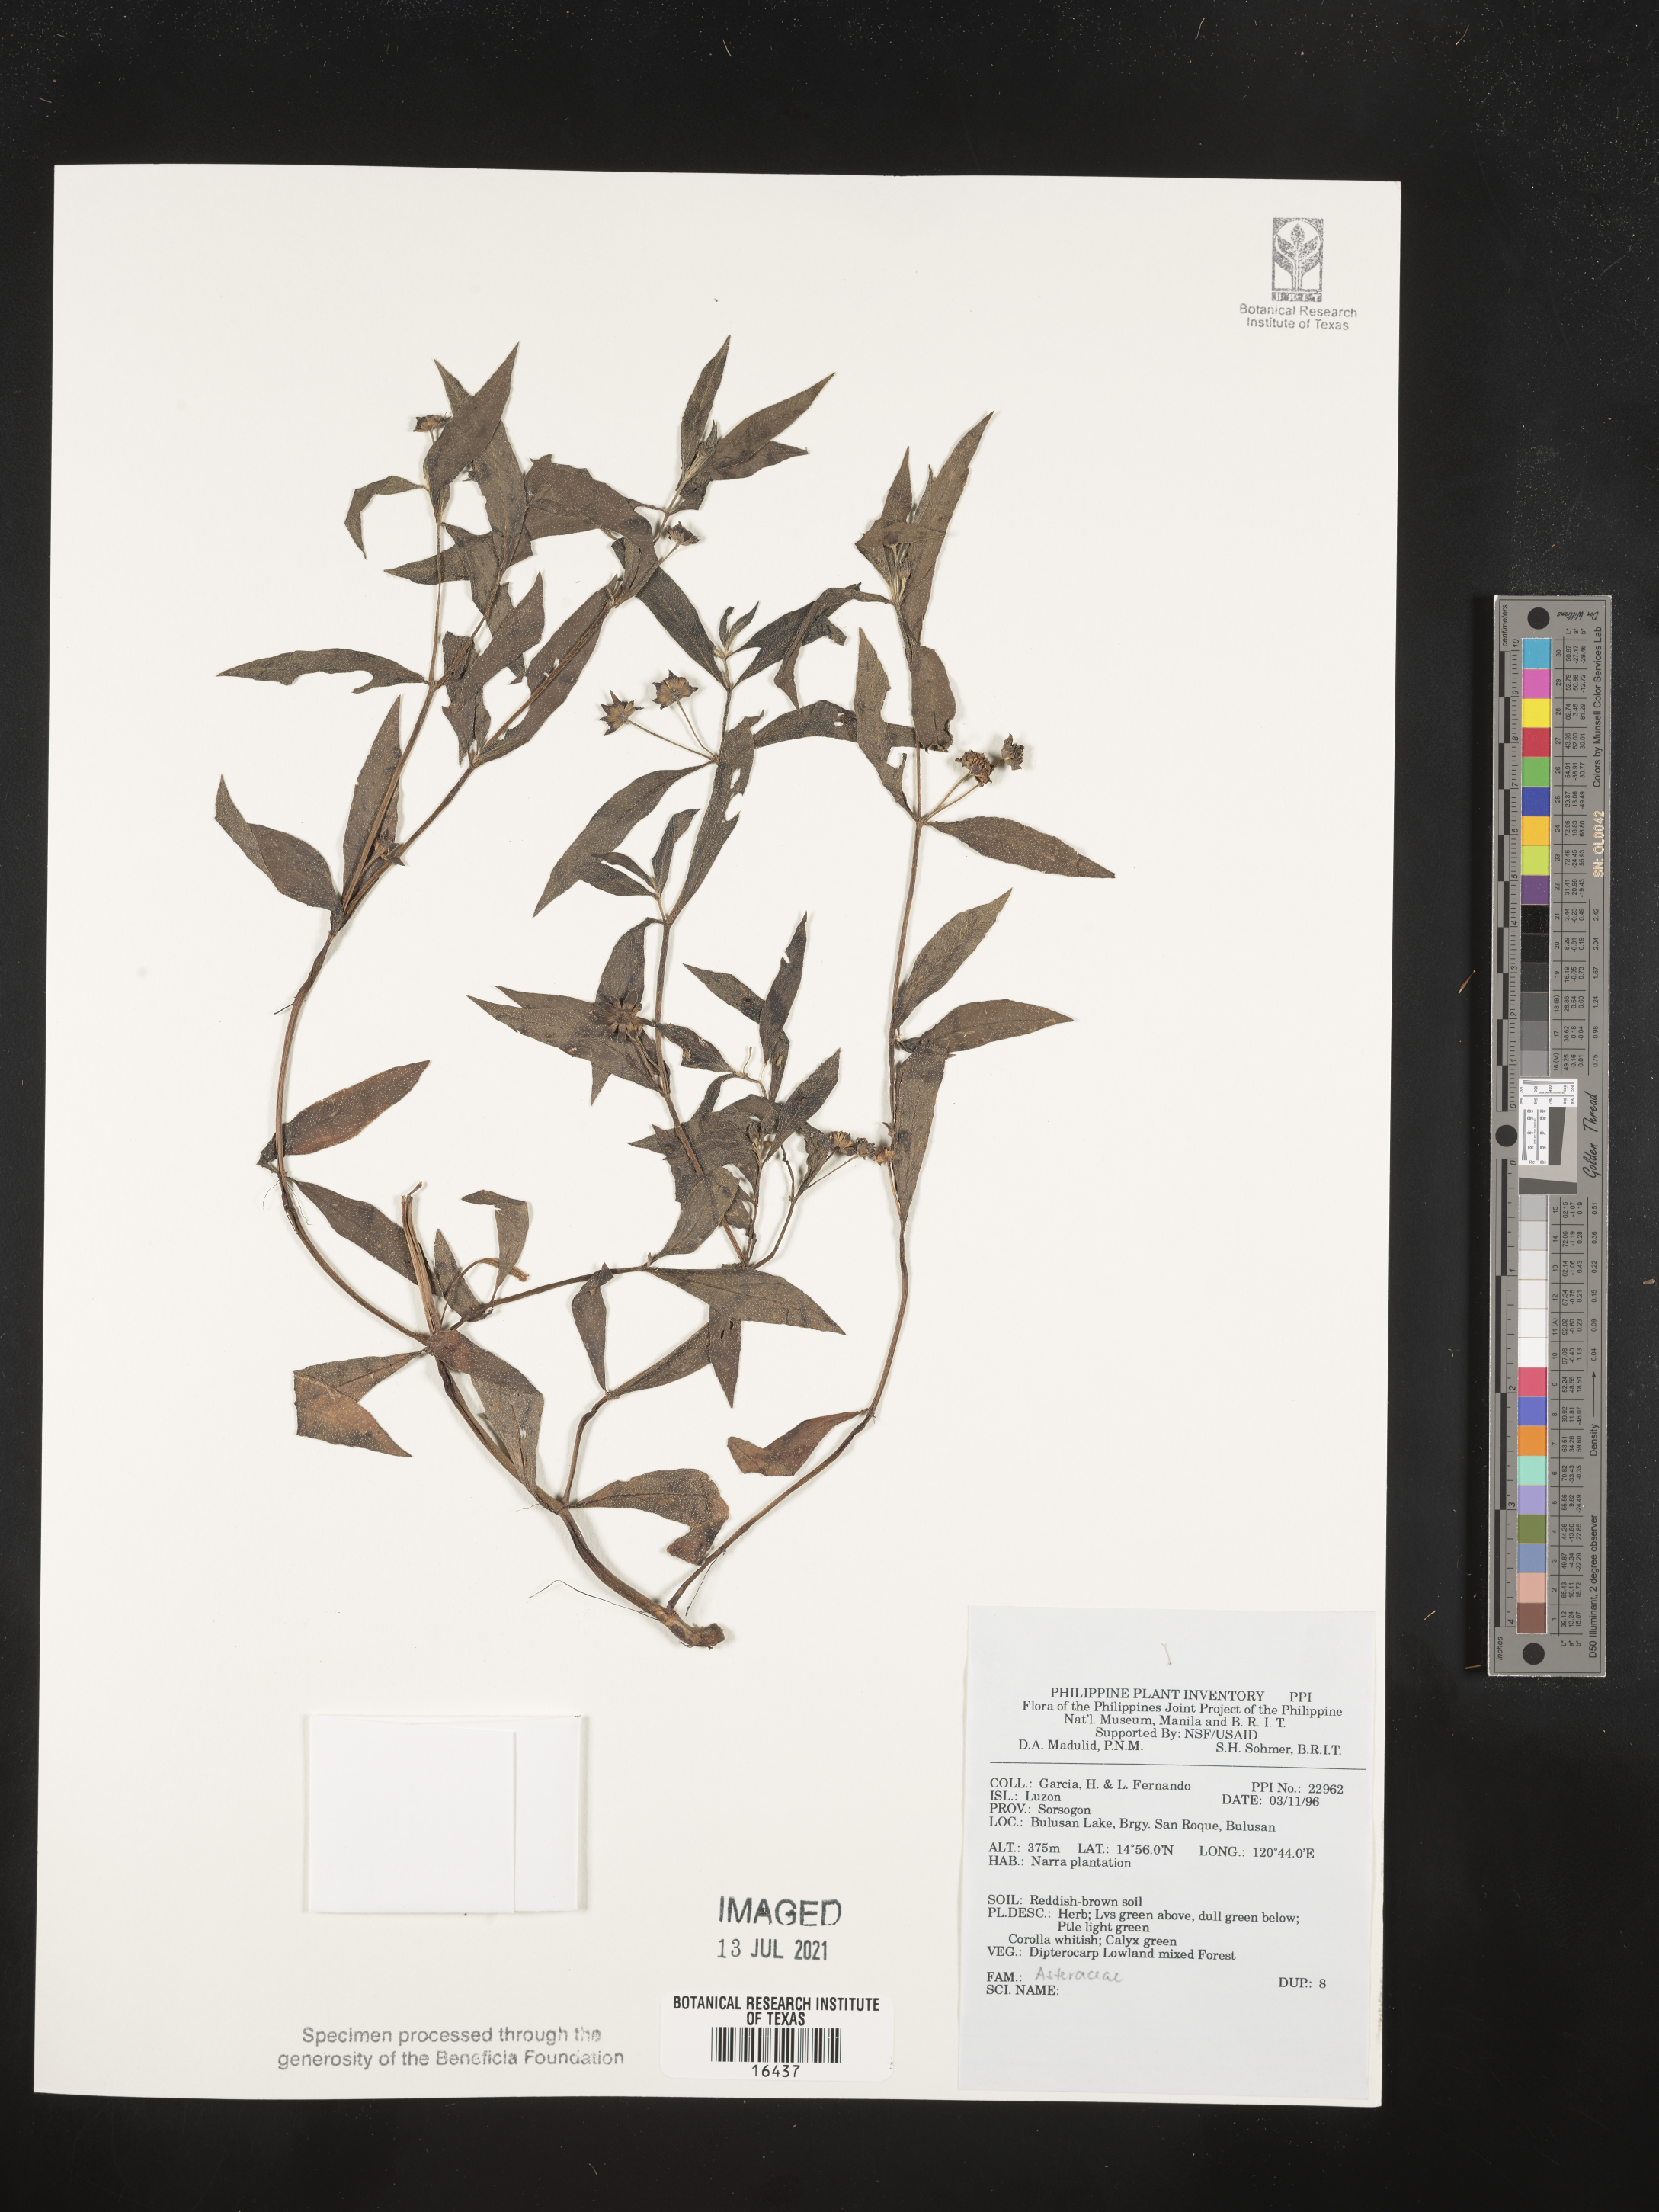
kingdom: Plantae
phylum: Tracheophyta
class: Magnoliopsida
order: Asterales
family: Asteraceae
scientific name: Asteraceae
